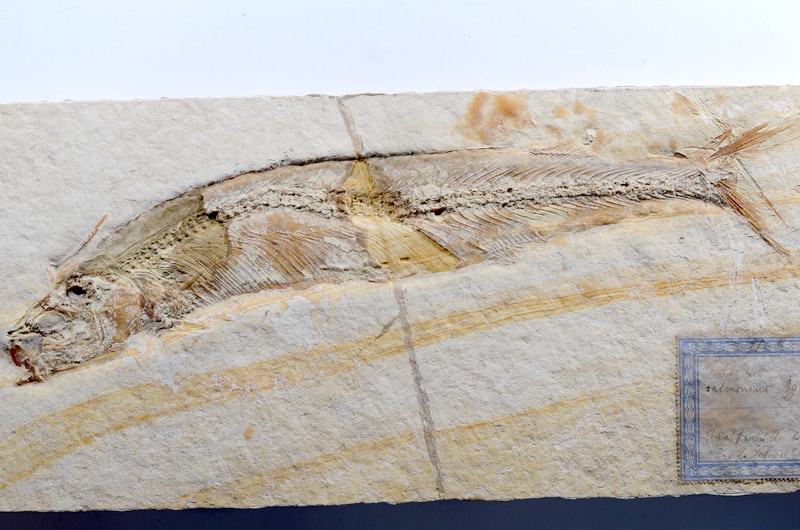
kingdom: Animalia
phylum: Chordata
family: Allothrissopidae
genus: Allothrissops
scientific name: Allothrissops
